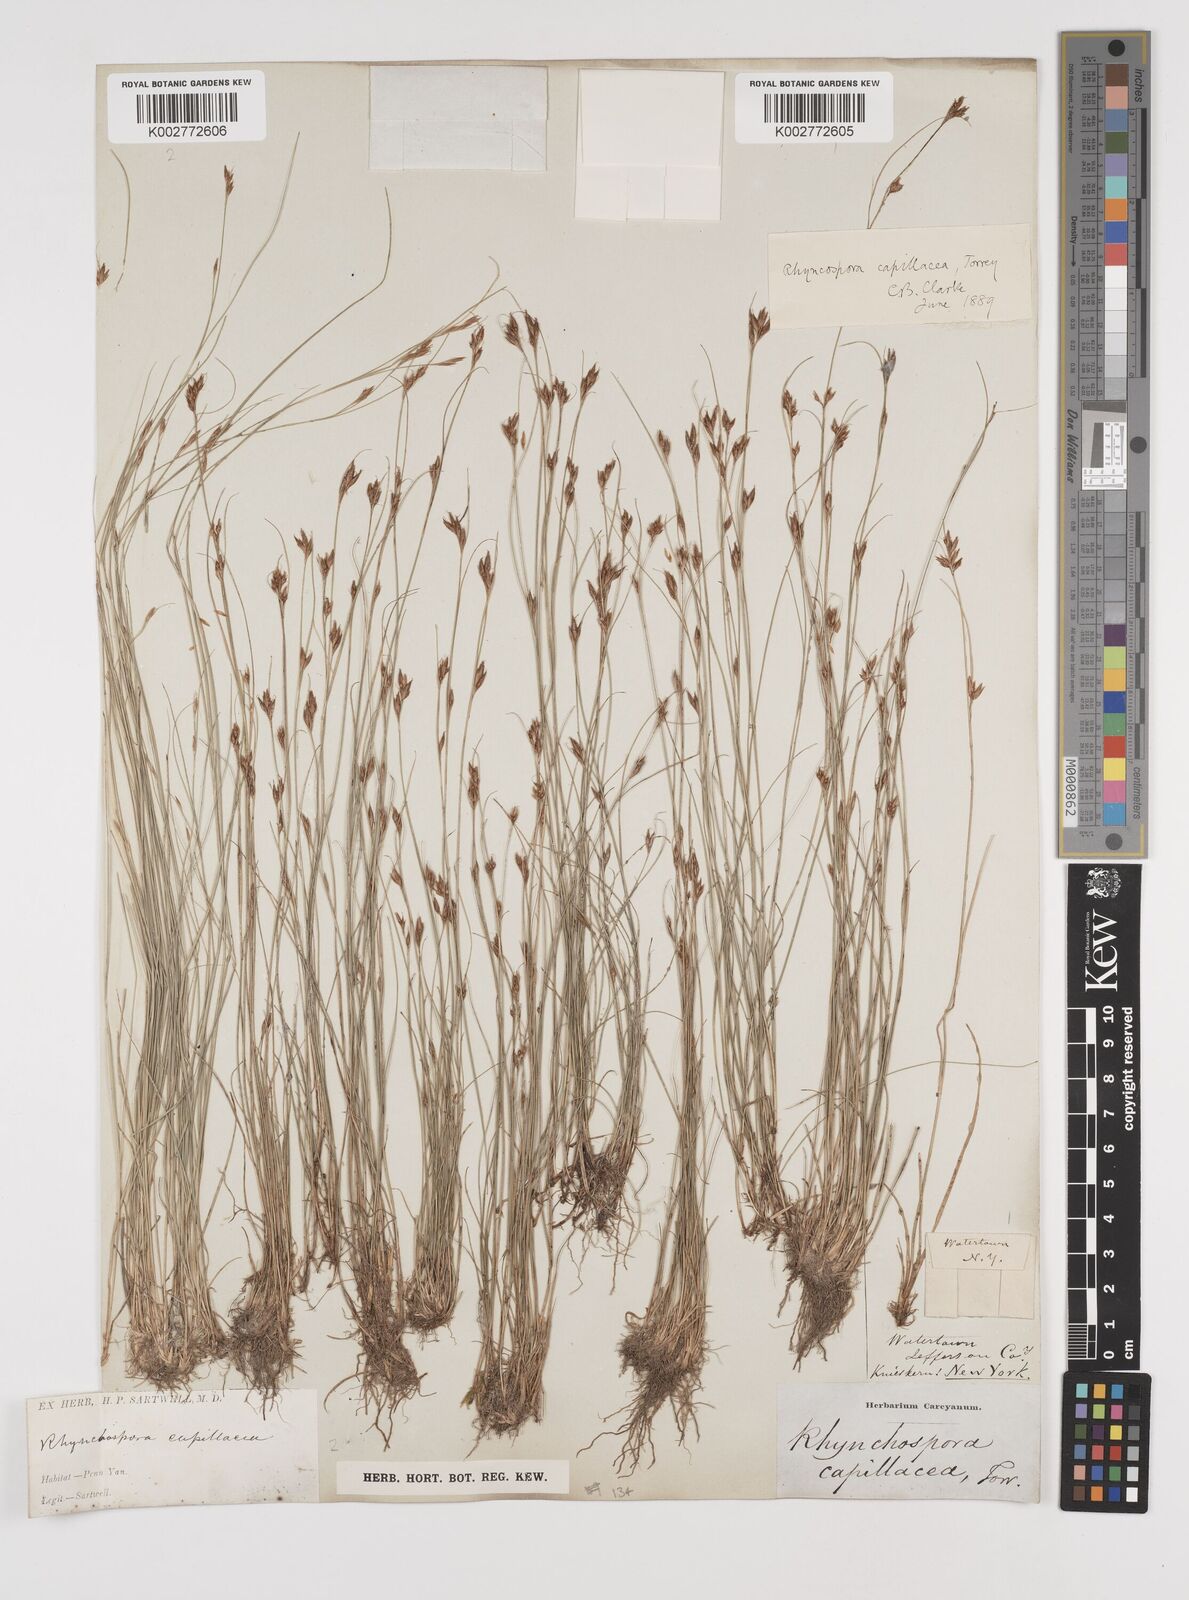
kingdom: Plantae
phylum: Tracheophyta
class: Liliopsida
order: Poales
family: Cyperaceae
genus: Rhynchospora
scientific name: Rhynchospora capillacea
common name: Capillary beakrush
